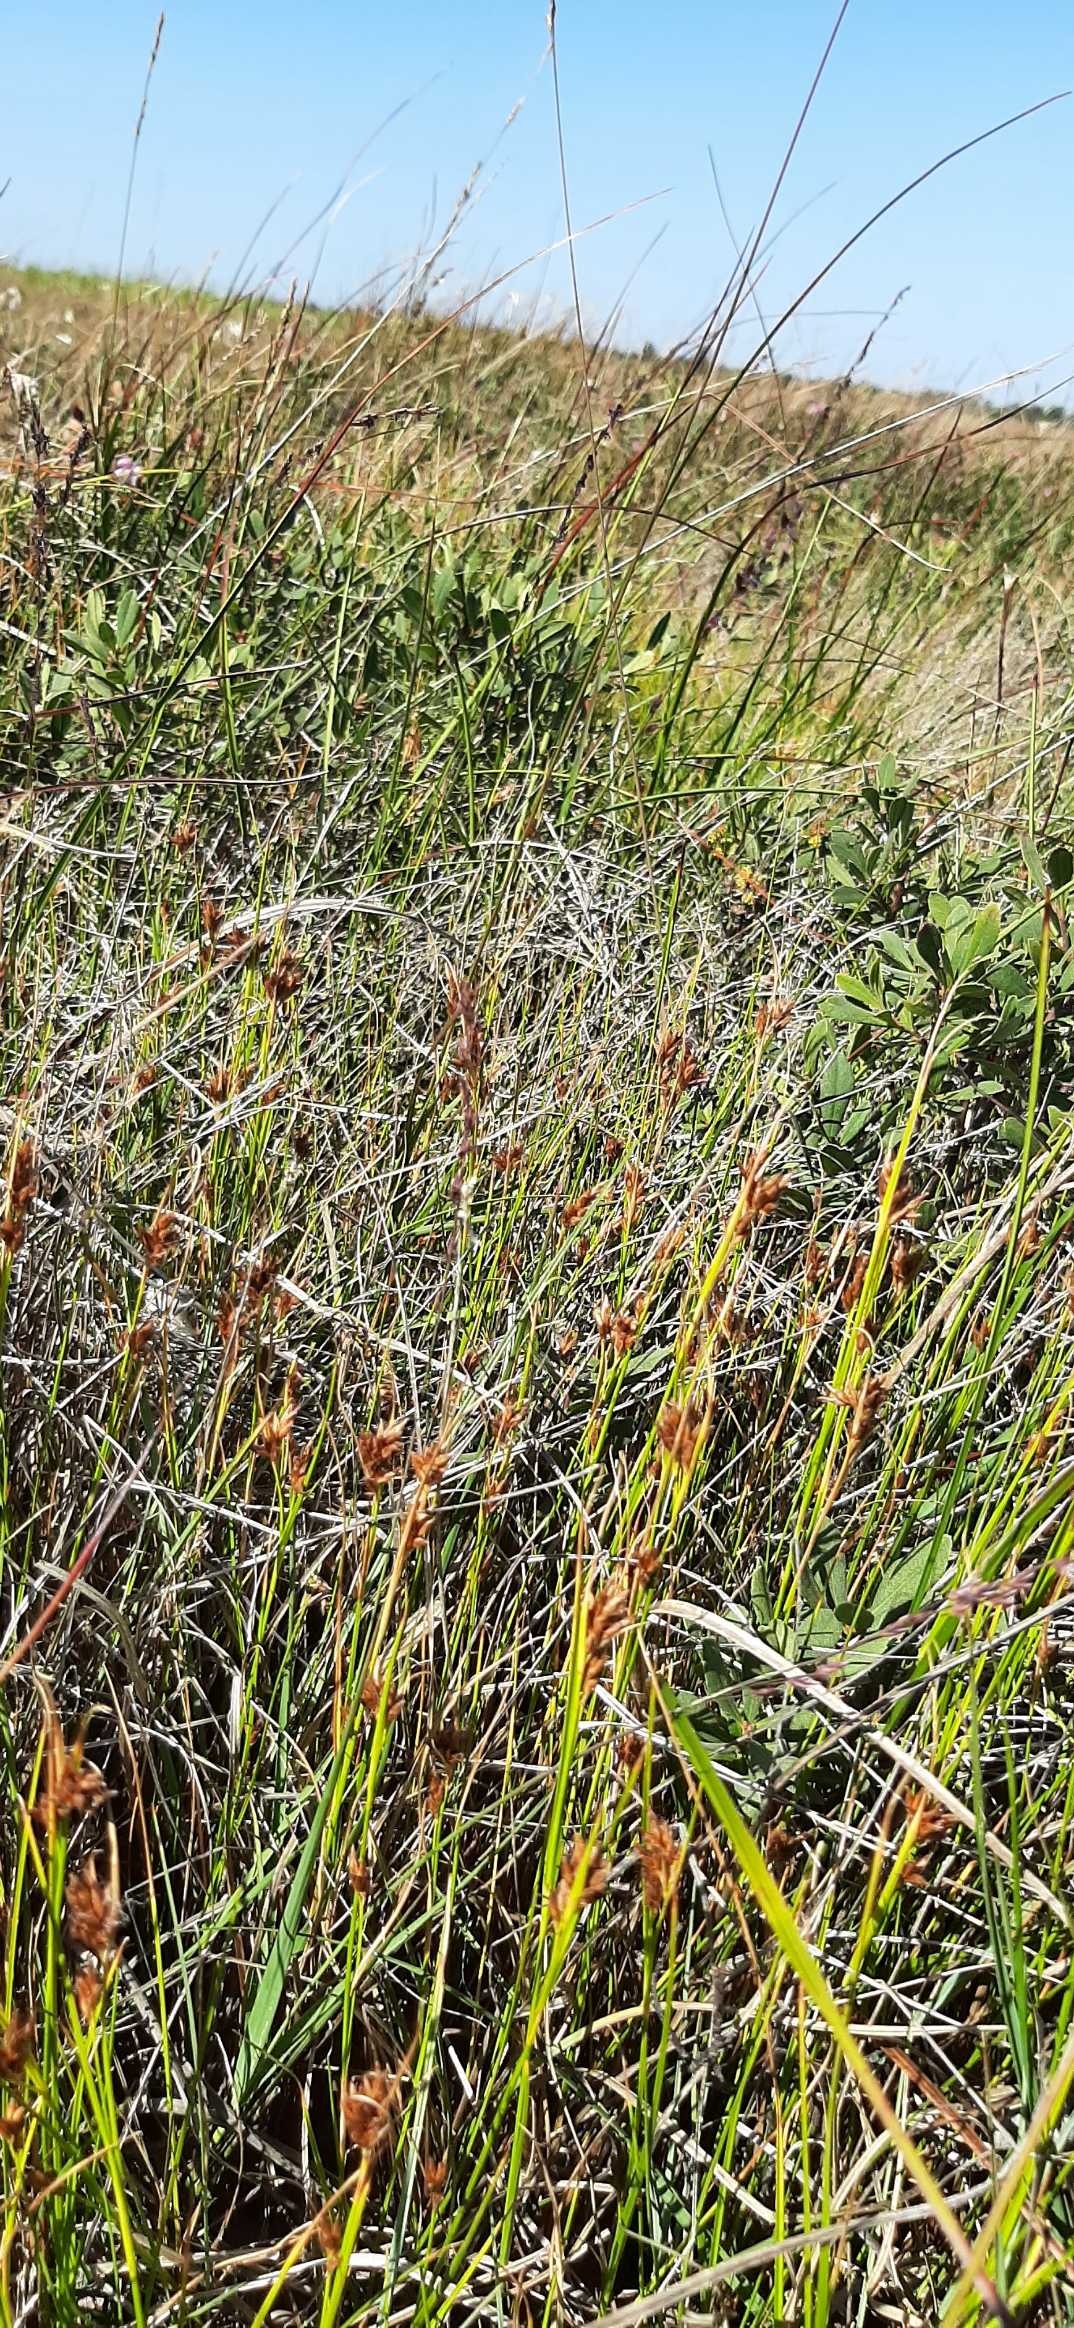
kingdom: Plantae
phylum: Tracheophyta
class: Liliopsida
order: Poales
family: Cyperaceae
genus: Rhynchospora
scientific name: Rhynchospora fusca
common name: Brun næbfrø
